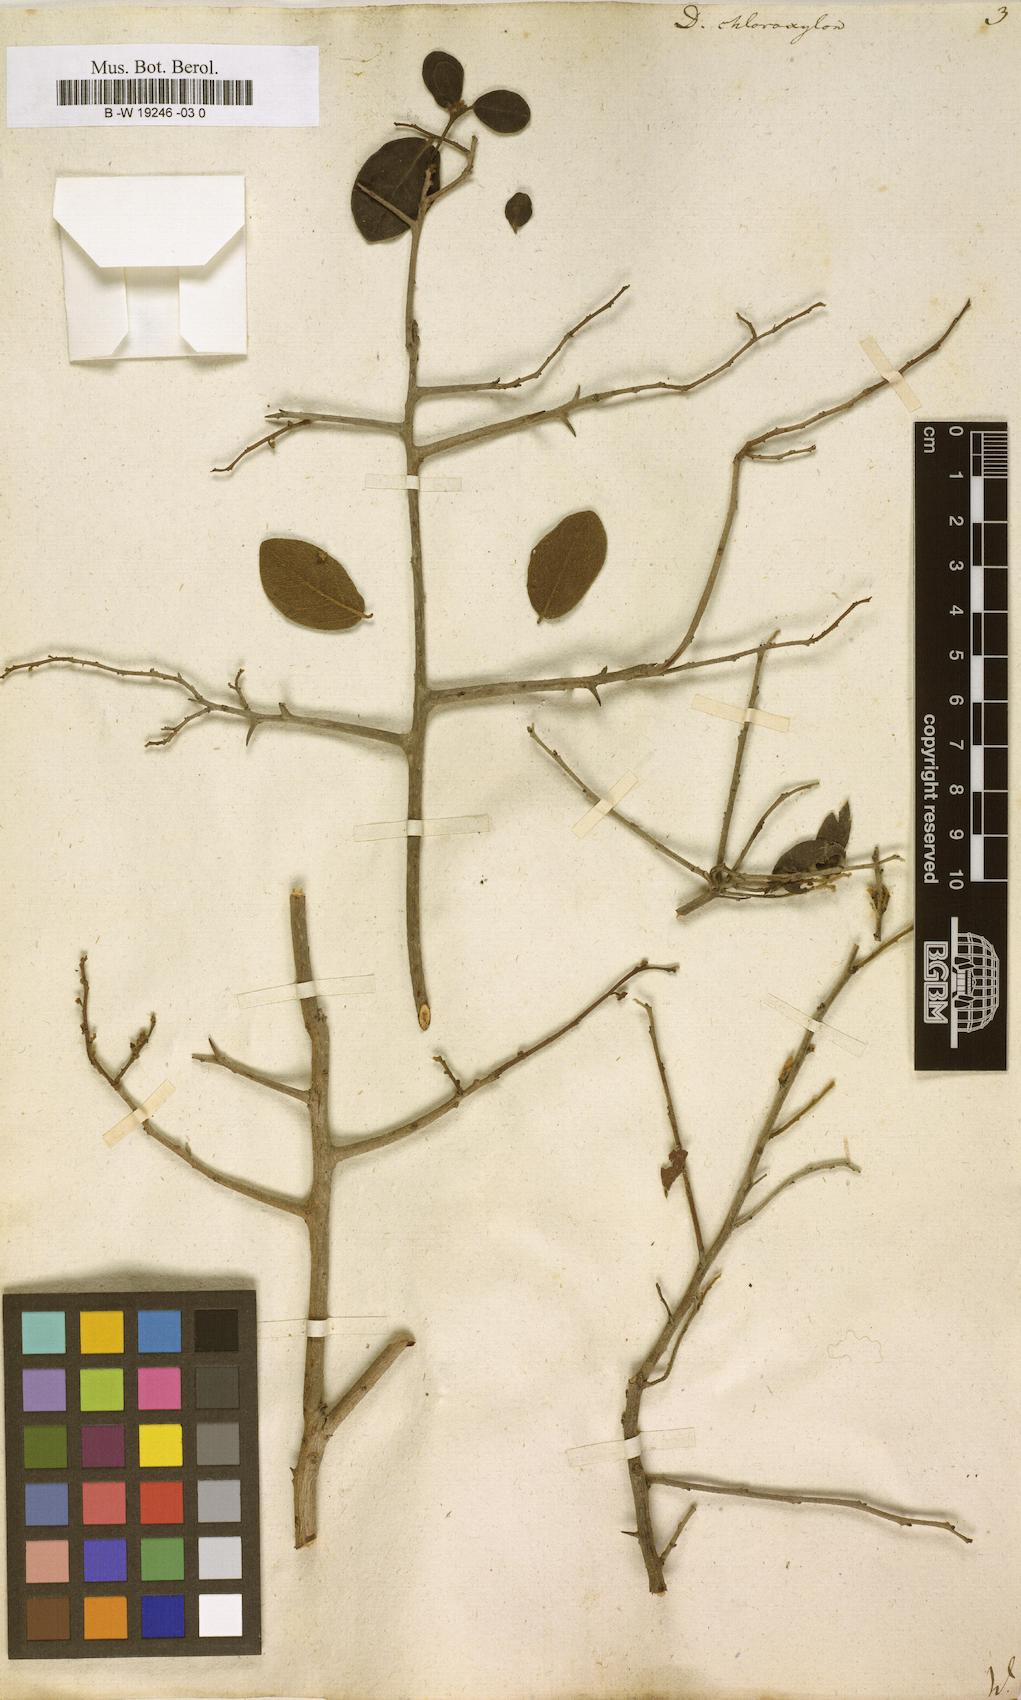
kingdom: Plantae
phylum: Tracheophyta
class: Magnoliopsida
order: Ericales
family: Ebenaceae
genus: Diospyros
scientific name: Diospyros chloroxylon
